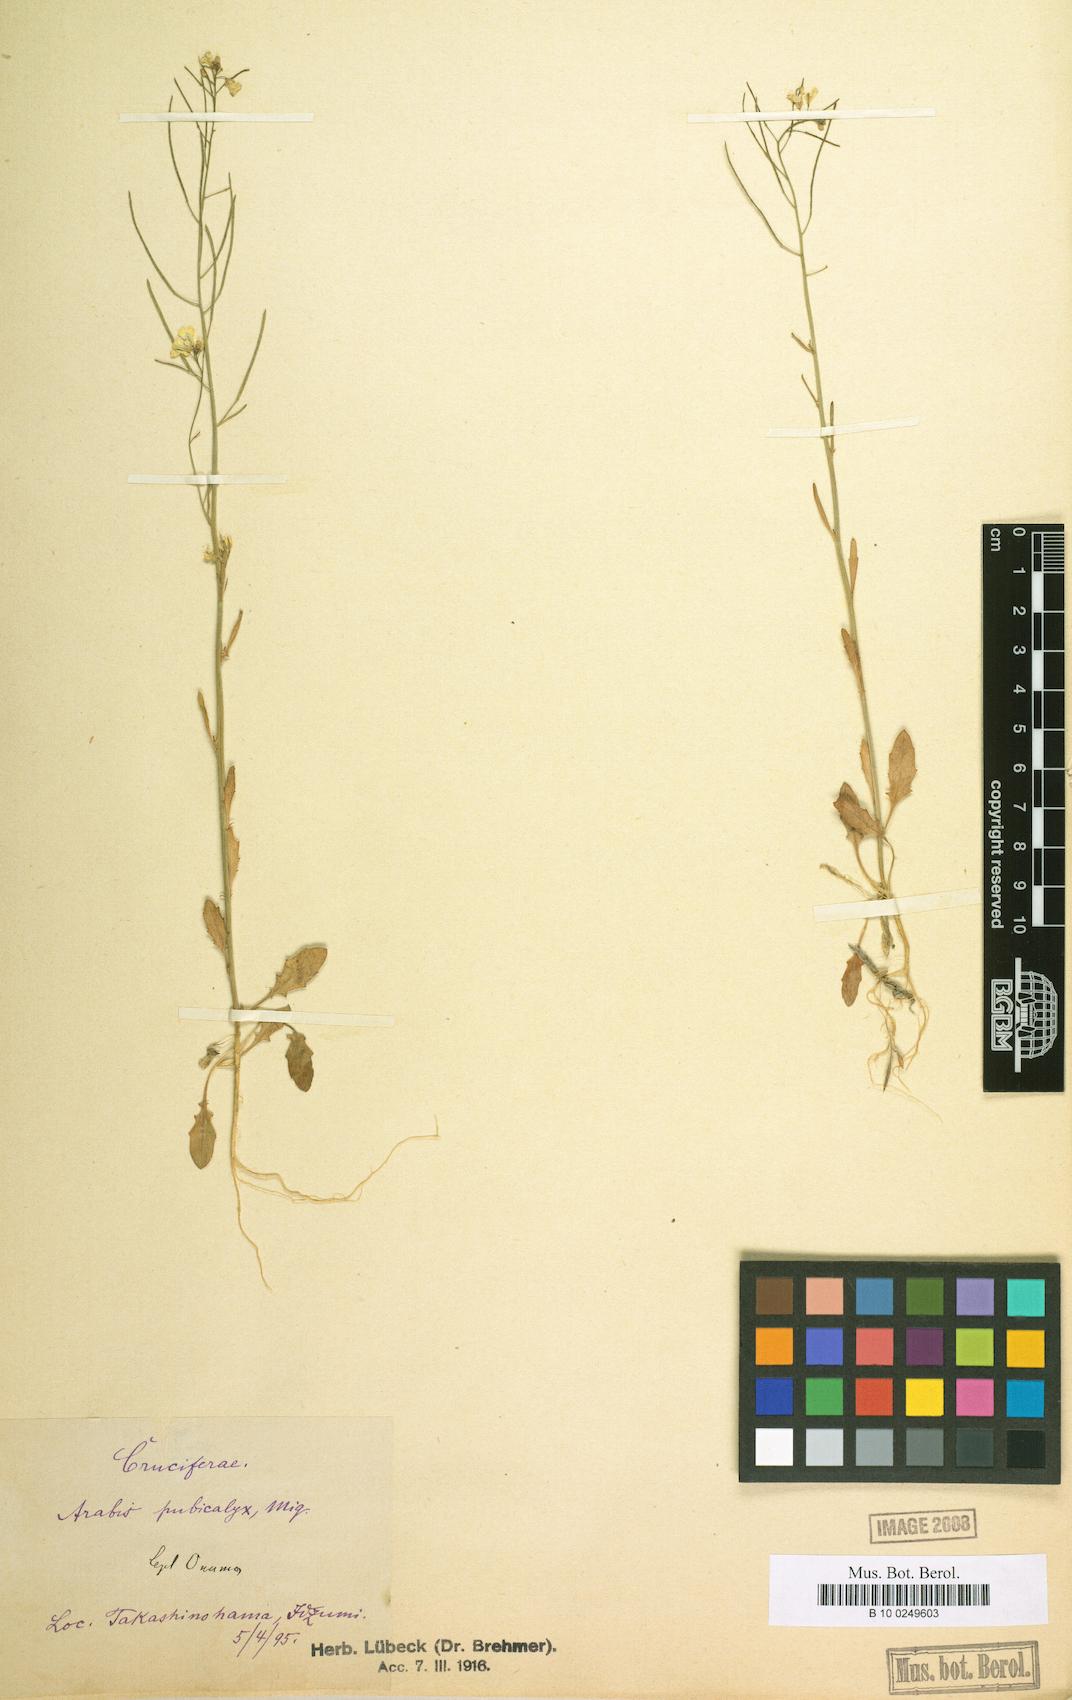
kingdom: Plantae
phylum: Tracheophyta
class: Magnoliopsida
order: Brassicales
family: Brassicaceae
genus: Arabidopsis
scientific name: Arabidopsis thaliana
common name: Thale cress
